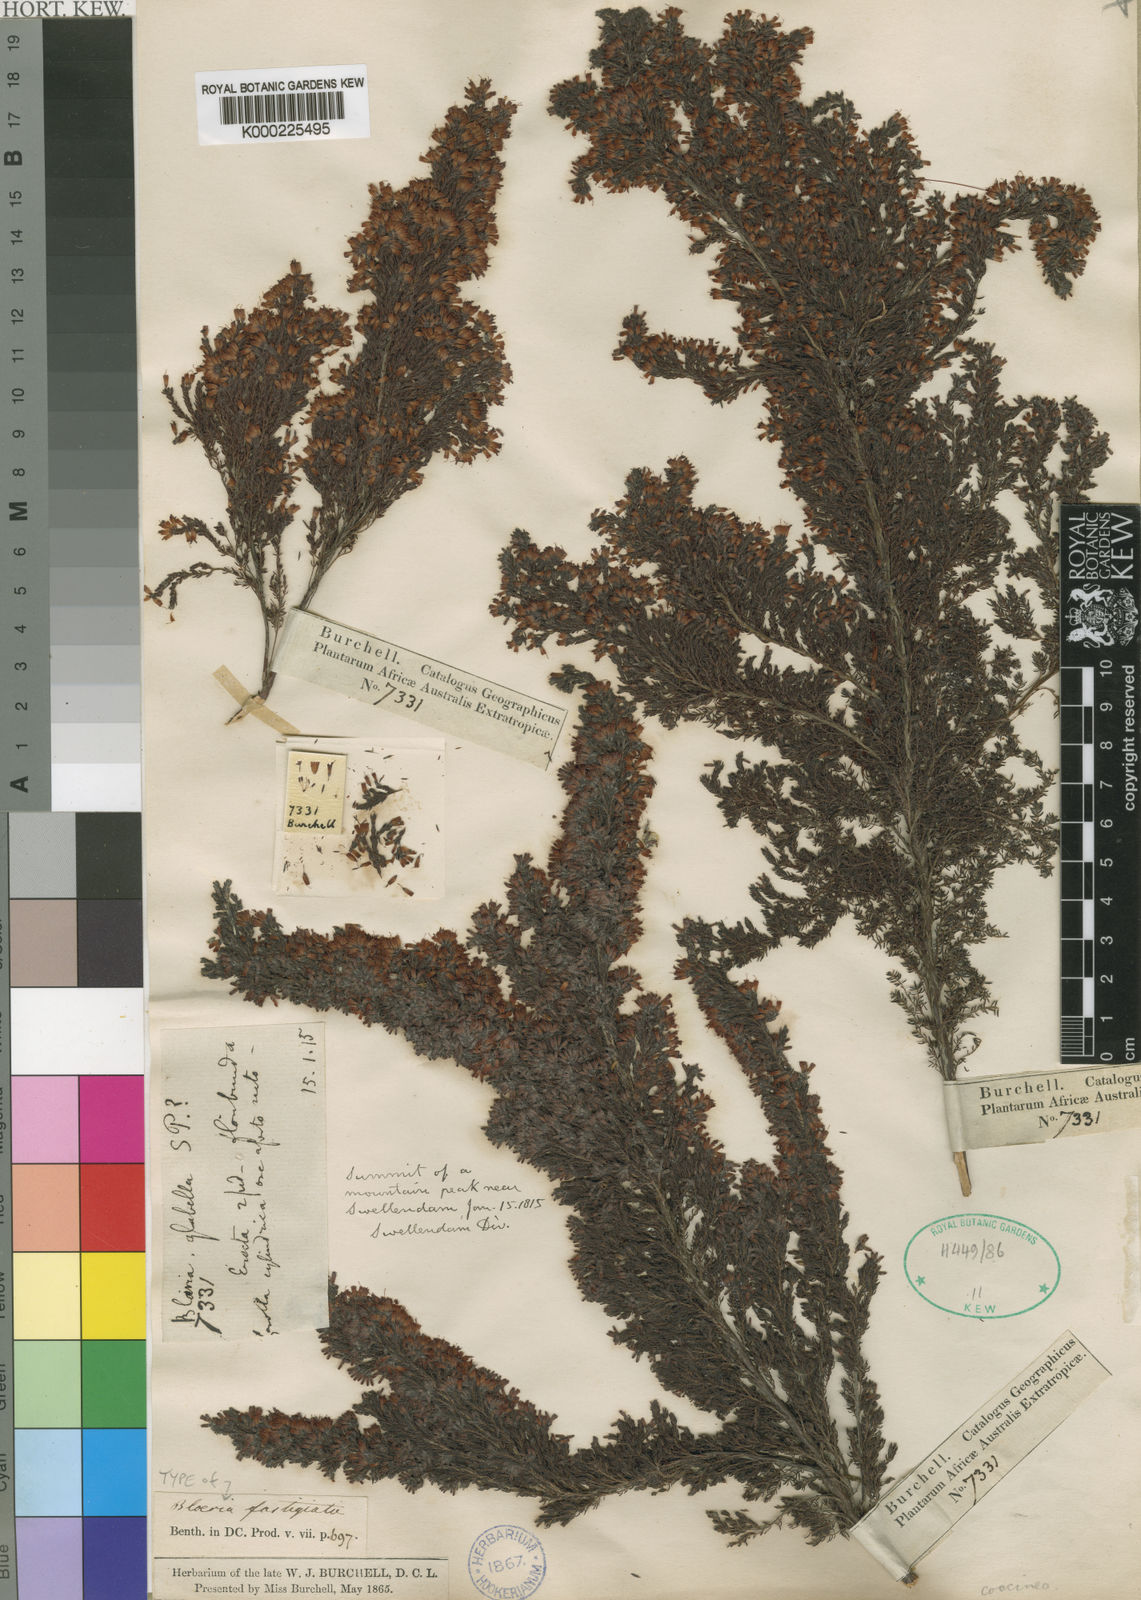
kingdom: Plantae
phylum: Tracheophyta
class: Magnoliopsida
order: Ericales
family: Ericaceae
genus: Erica
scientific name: Erica longimontana
